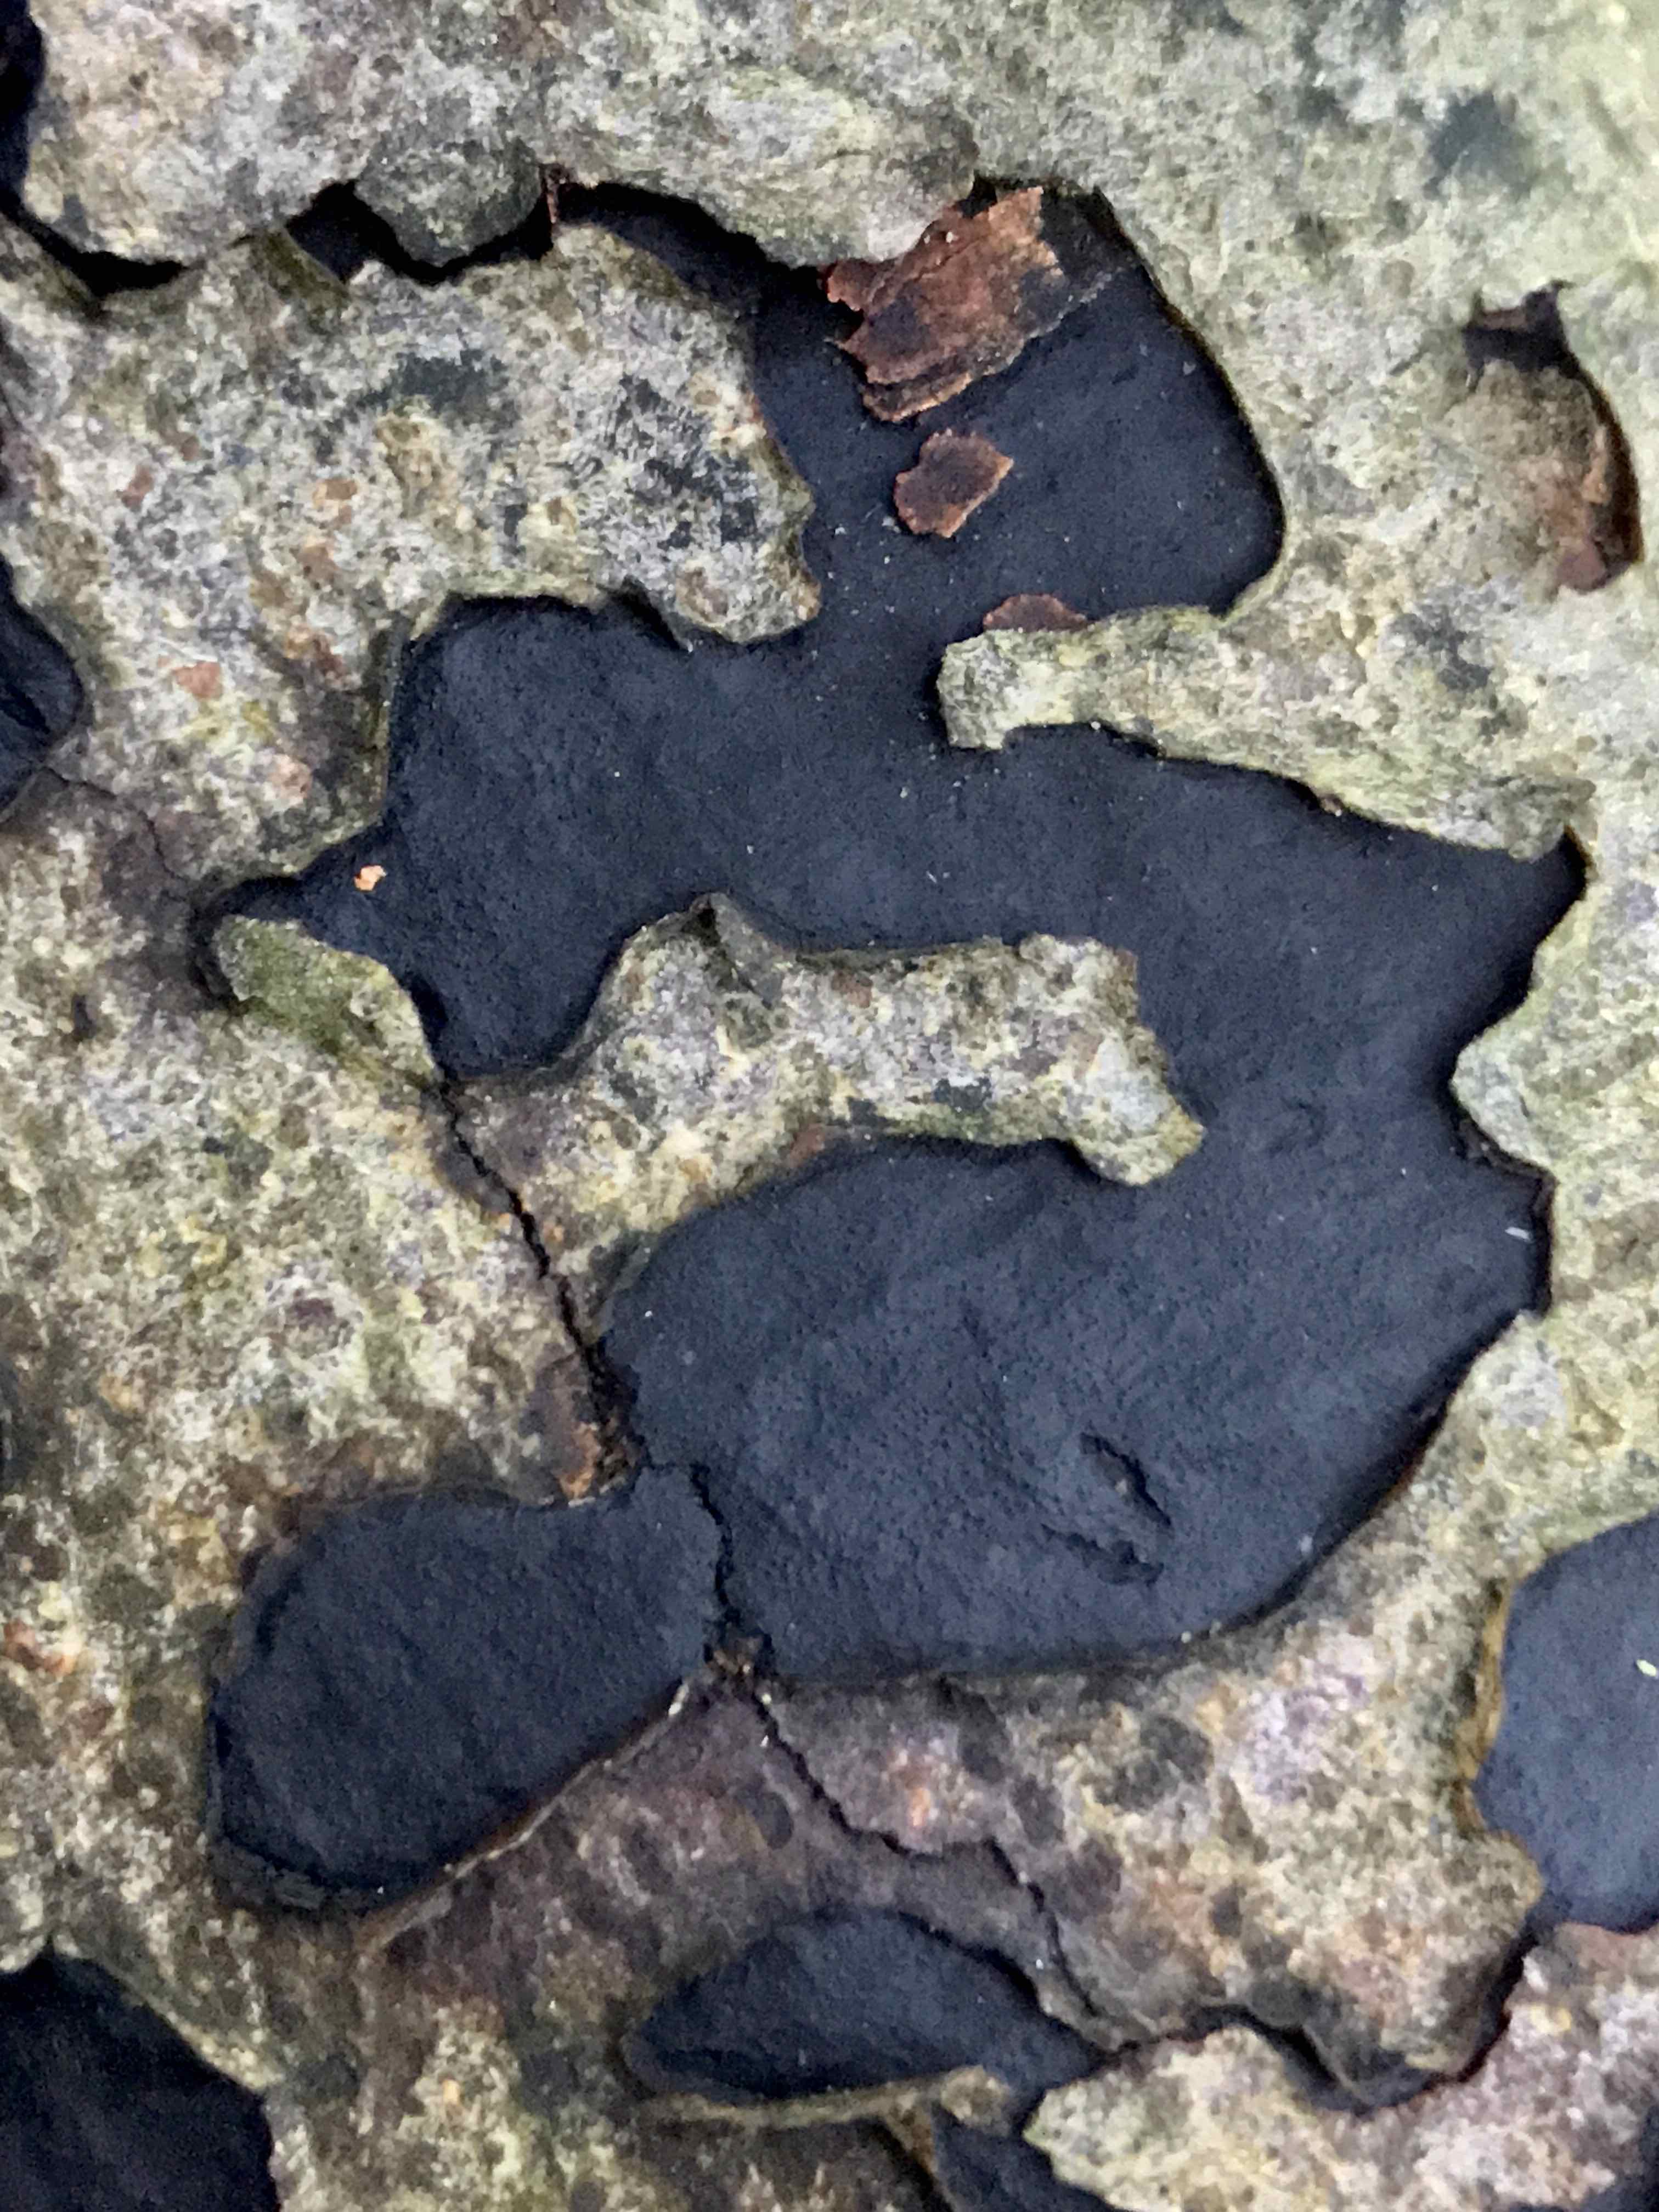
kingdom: Fungi
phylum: Ascomycota
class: Sordariomycetes
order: Xylariales
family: Graphostromataceae
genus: Biscogniauxia
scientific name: Biscogniauxia nummularia
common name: bøge-kulskive
